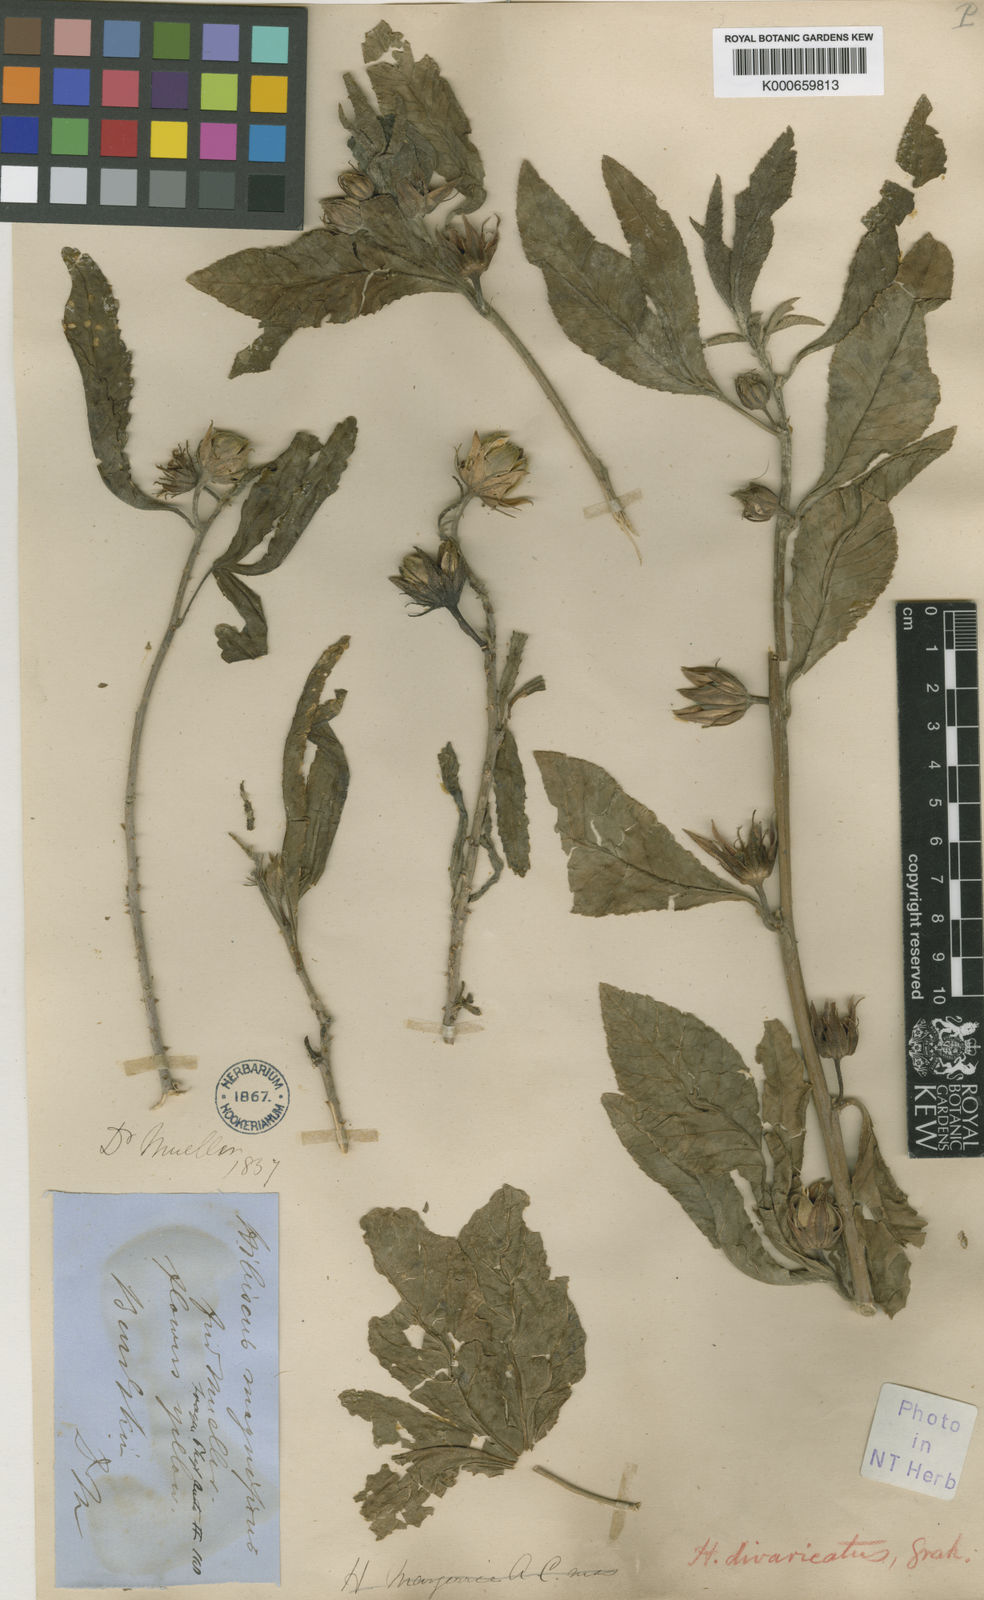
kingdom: Plantae
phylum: Tracheophyta
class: Magnoliopsida
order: Malvales
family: Malvaceae
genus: Hibiscus
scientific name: Hibiscus divaricatus
